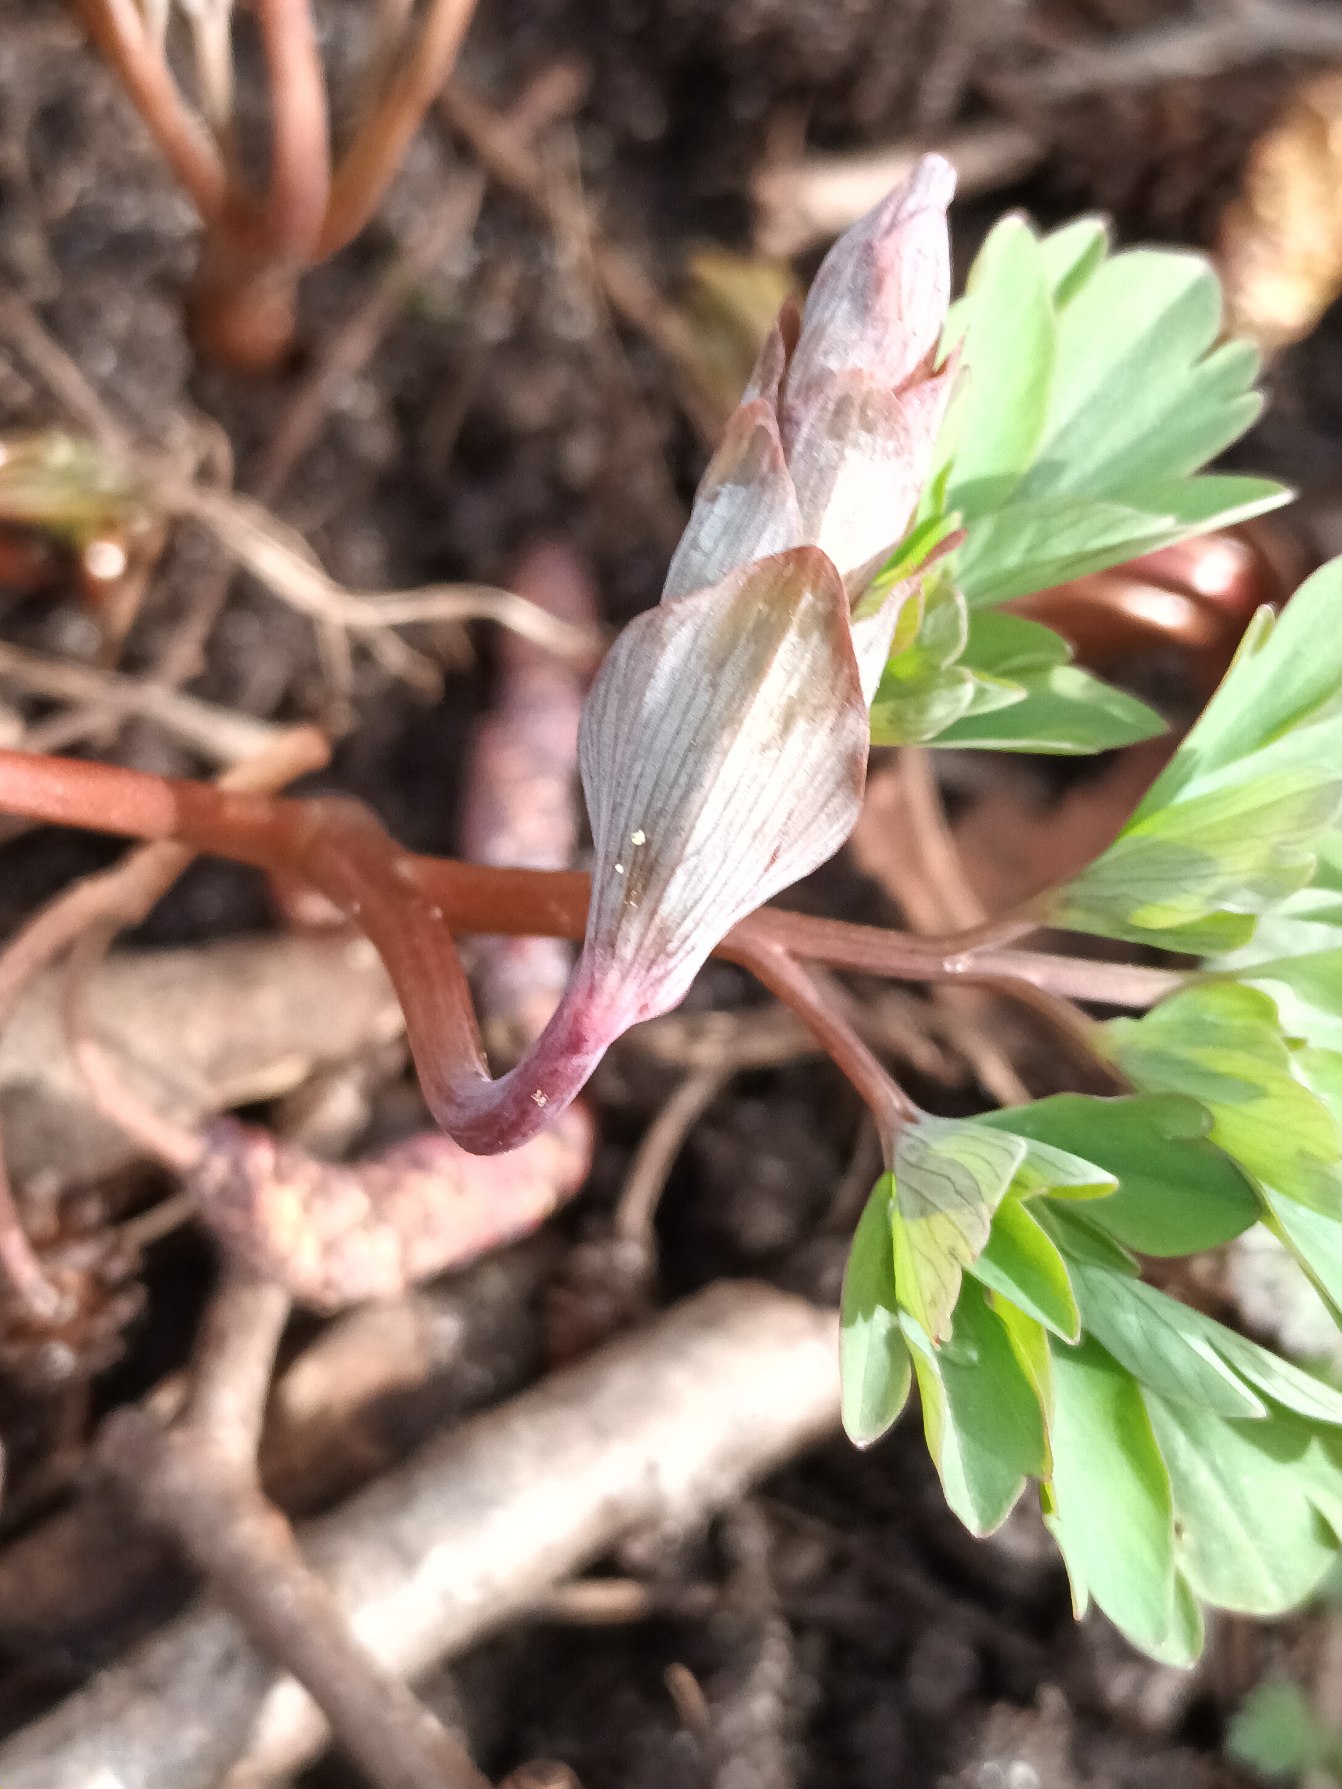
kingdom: Plantae
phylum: Tracheophyta
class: Magnoliopsida
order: Ranunculales
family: Papaveraceae
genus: Corydalis
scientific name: Corydalis cava
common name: Hulrodet lærkespore
